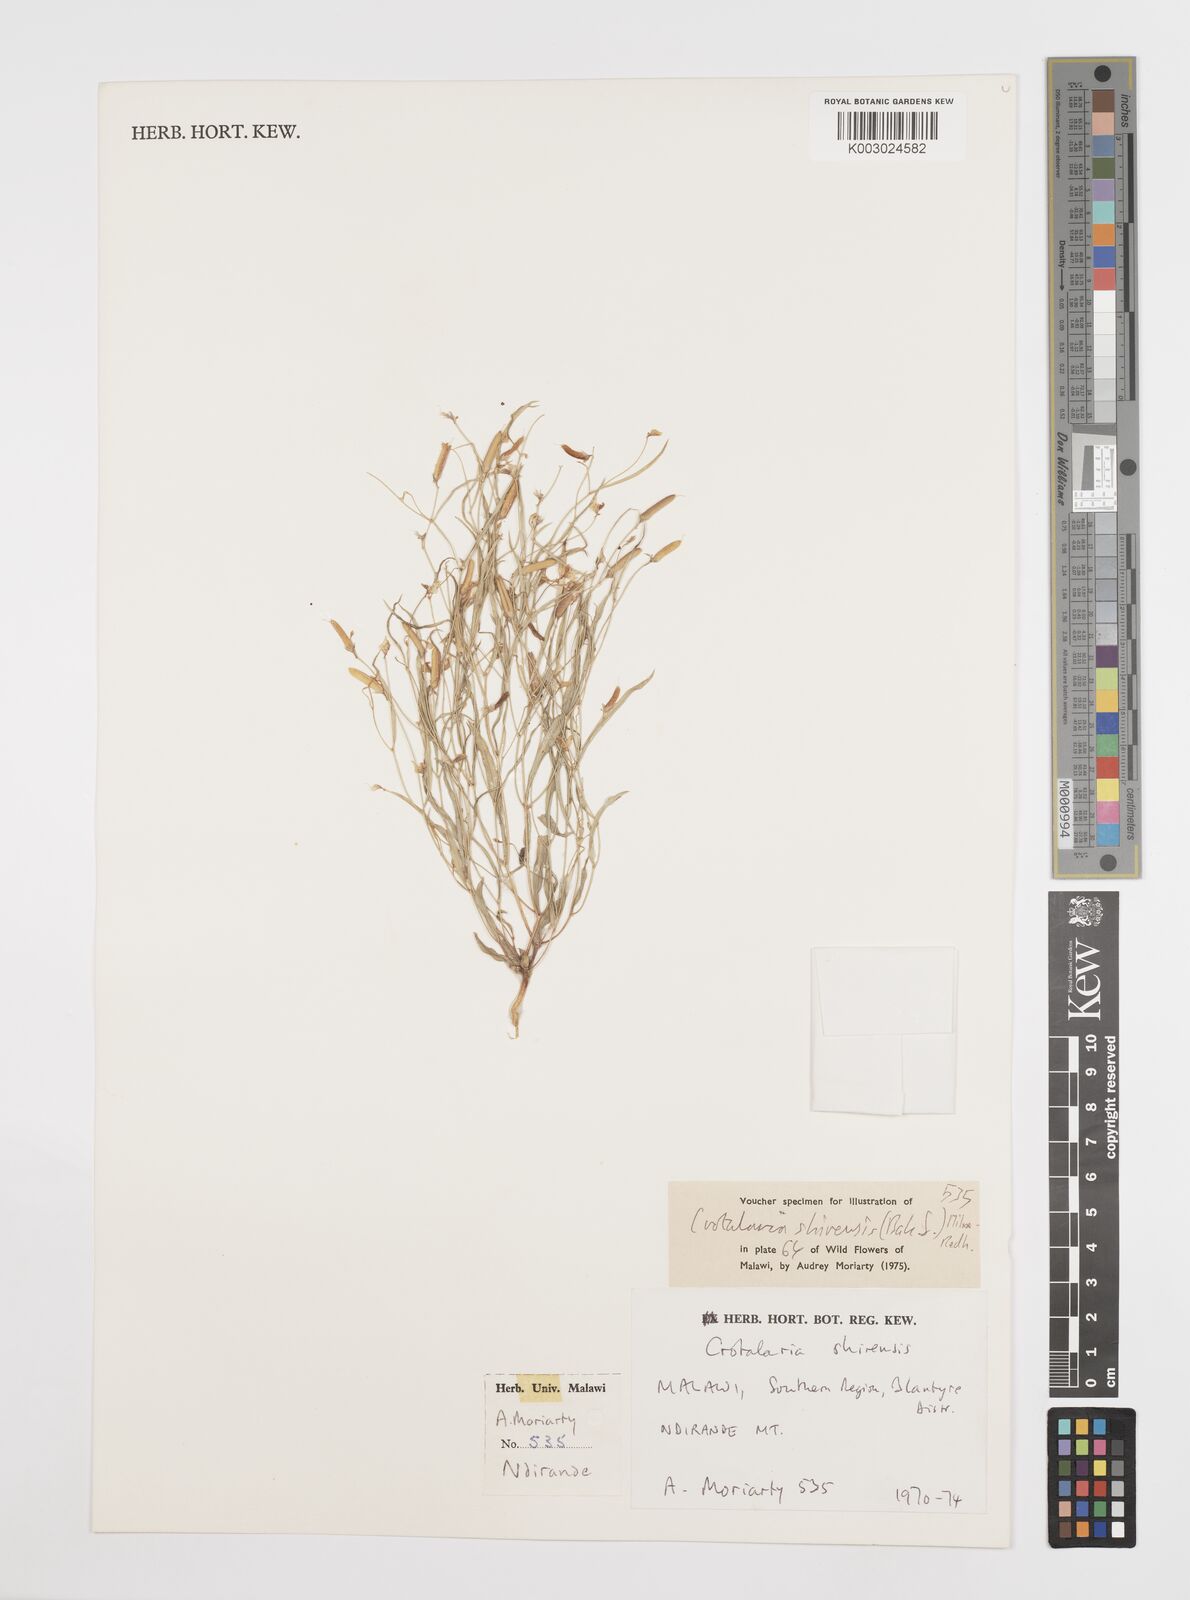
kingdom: Plantae
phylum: Tracheophyta
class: Magnoliopsida
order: Fabales
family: Fabaceae
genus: Crotalaria
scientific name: Crotalaria shirensis
